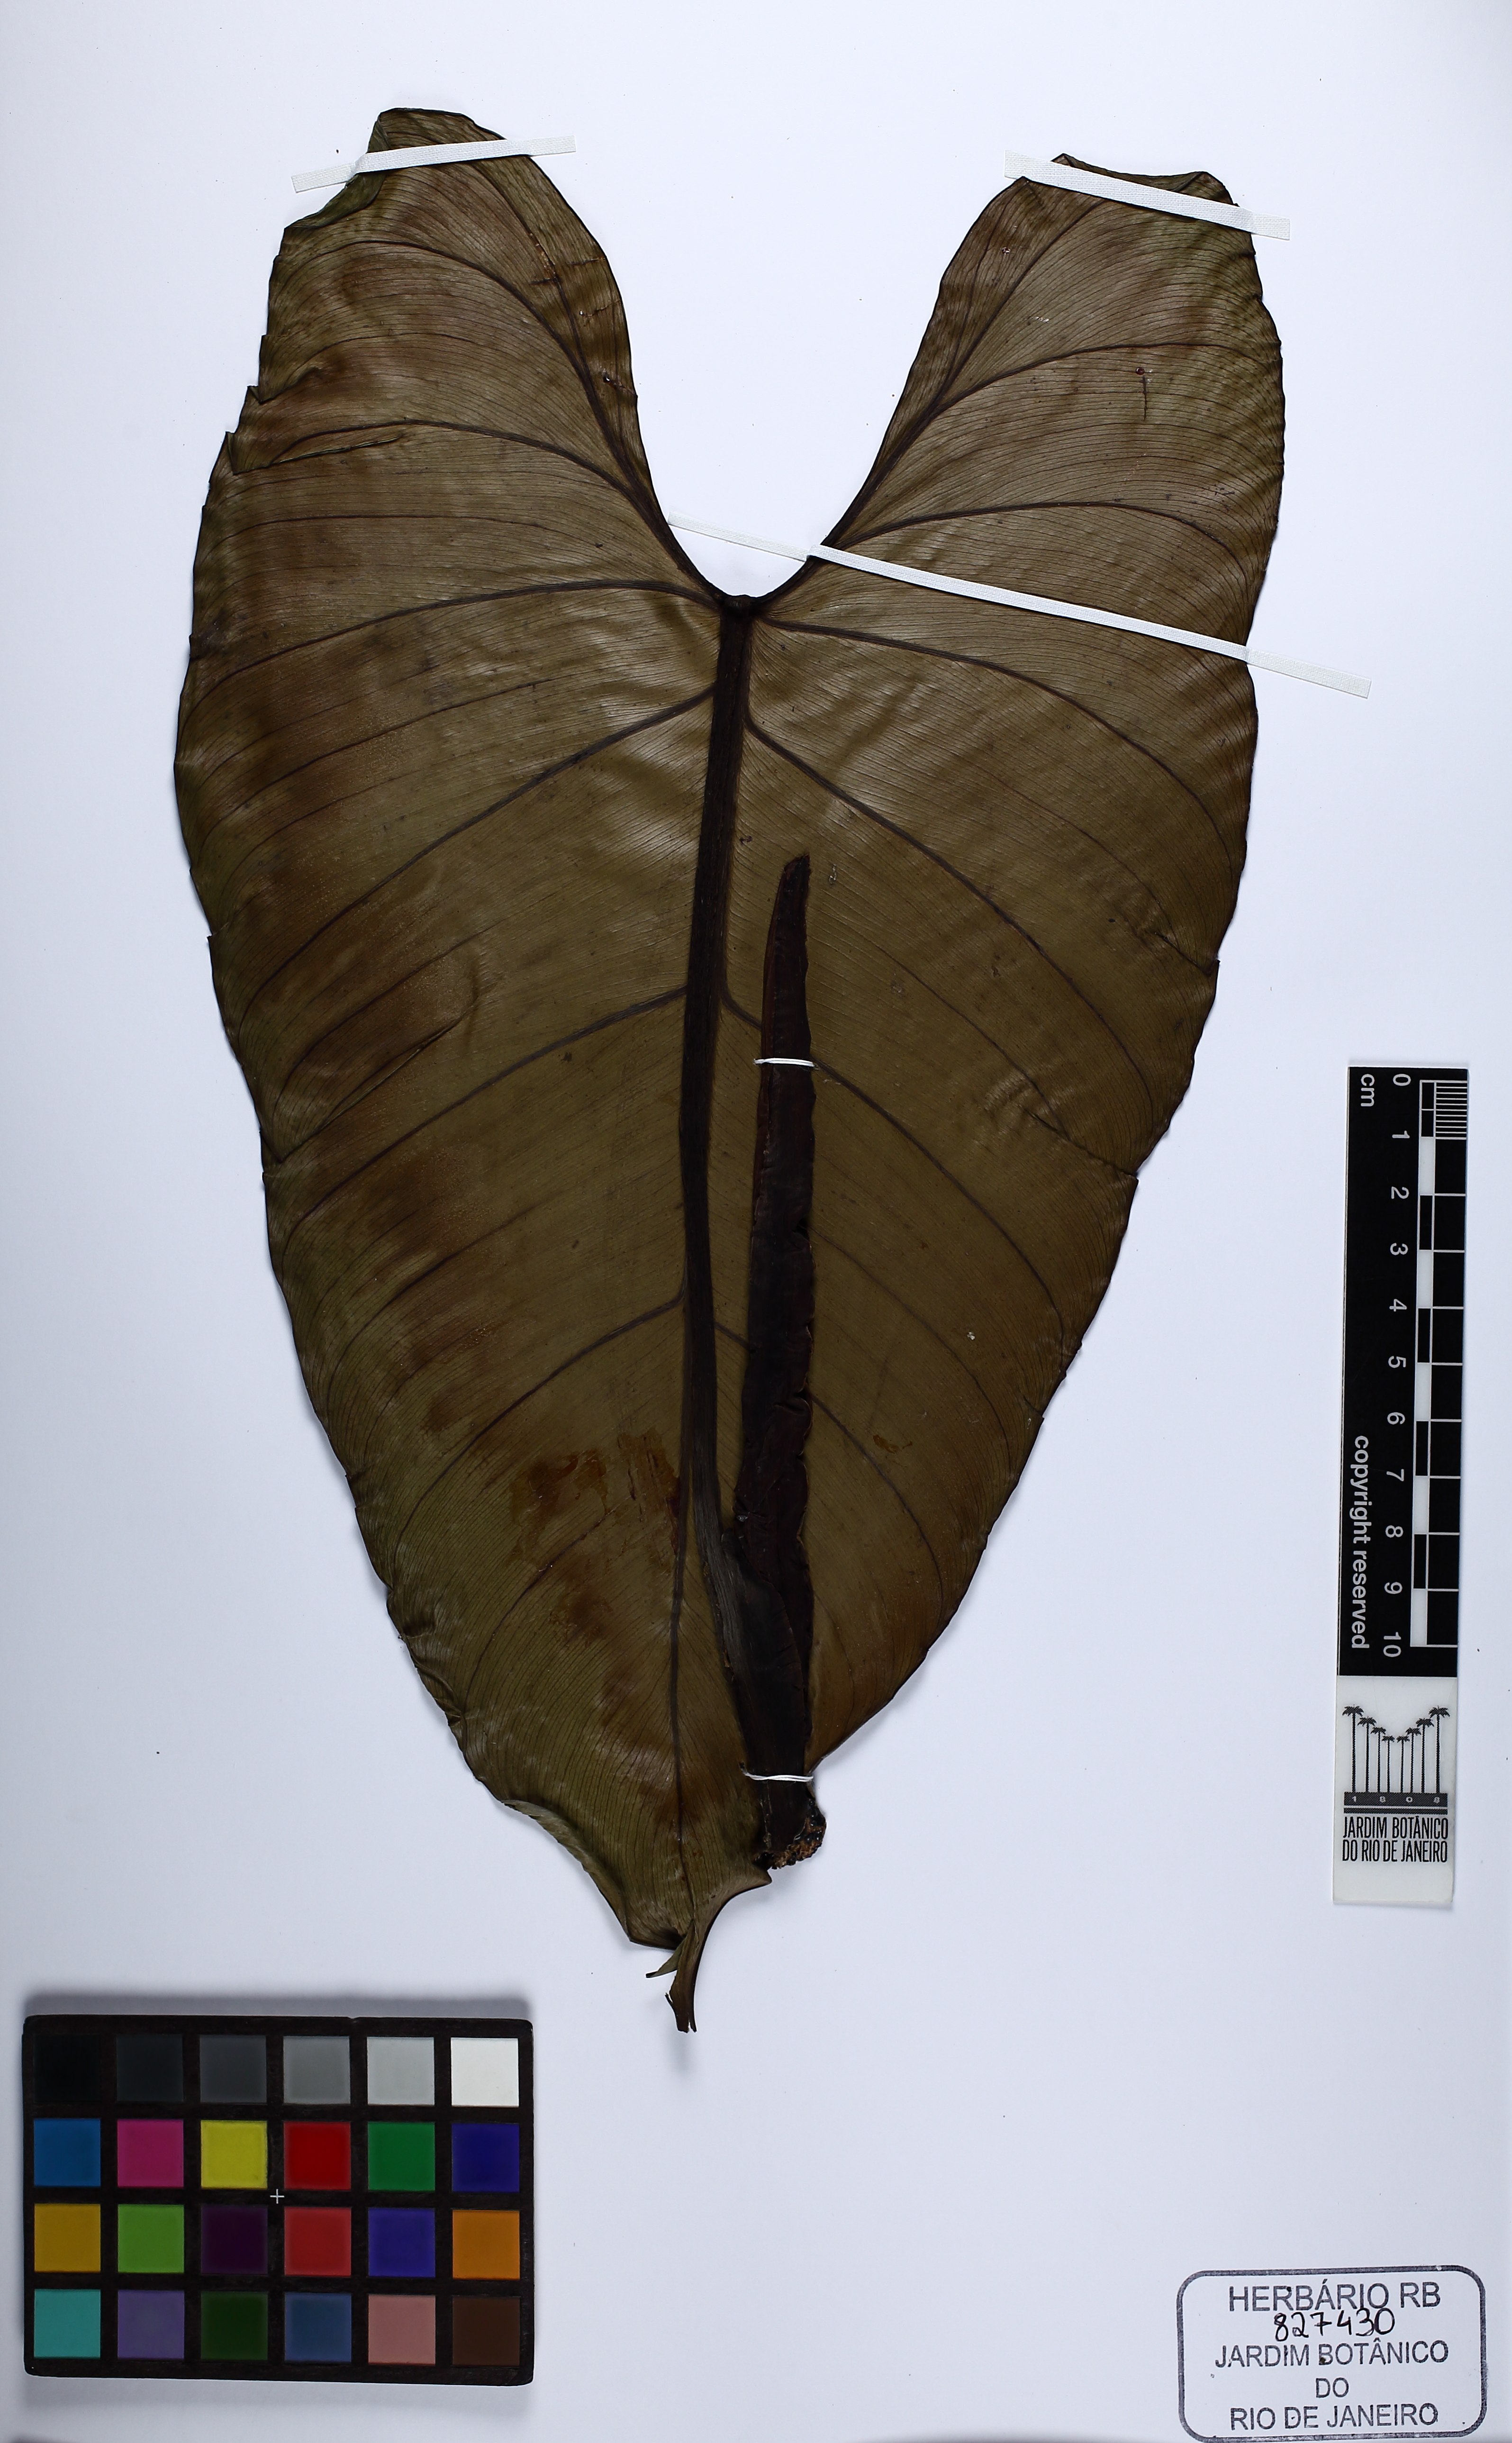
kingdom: Plantae
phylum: Tracheophyta
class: Liliopsida
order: Alismatales
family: Araceae
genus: Philodendron
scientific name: Philodendron roseopetiolatum
